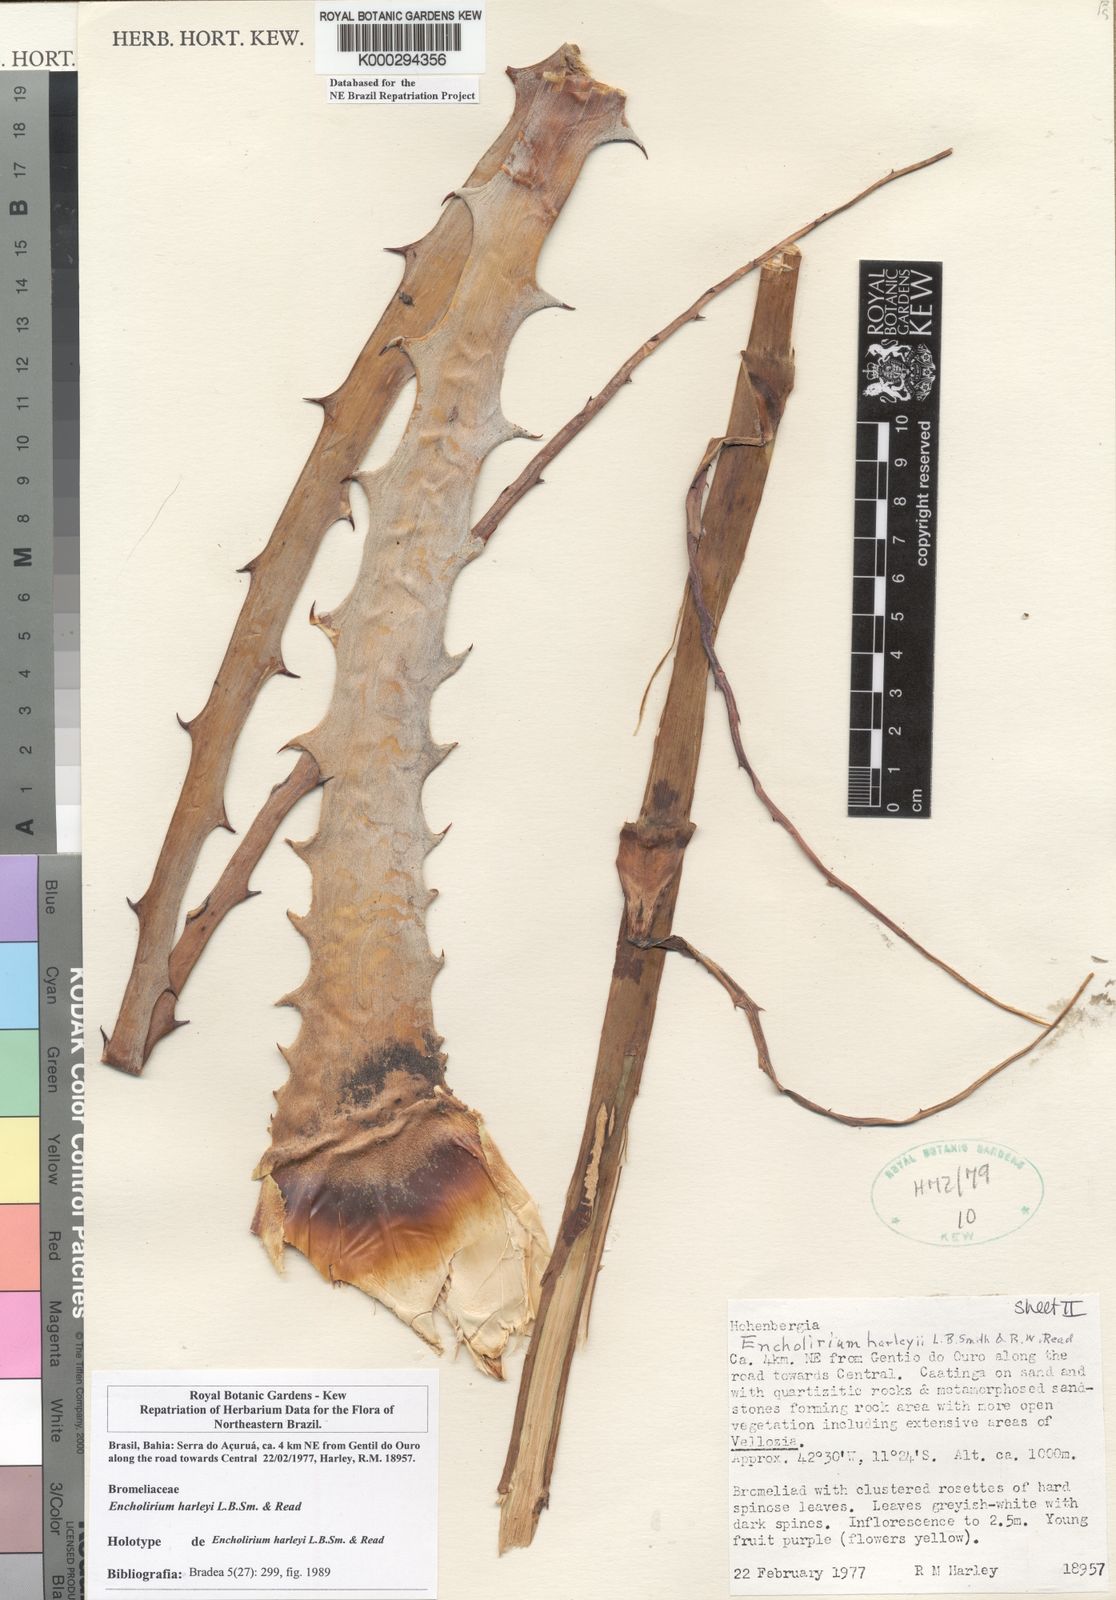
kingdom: Plantae
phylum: Tracheophyta
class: Liliopsida
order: Poales
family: Bromeliaceae
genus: Encholirium
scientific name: Encholirium spectabile
